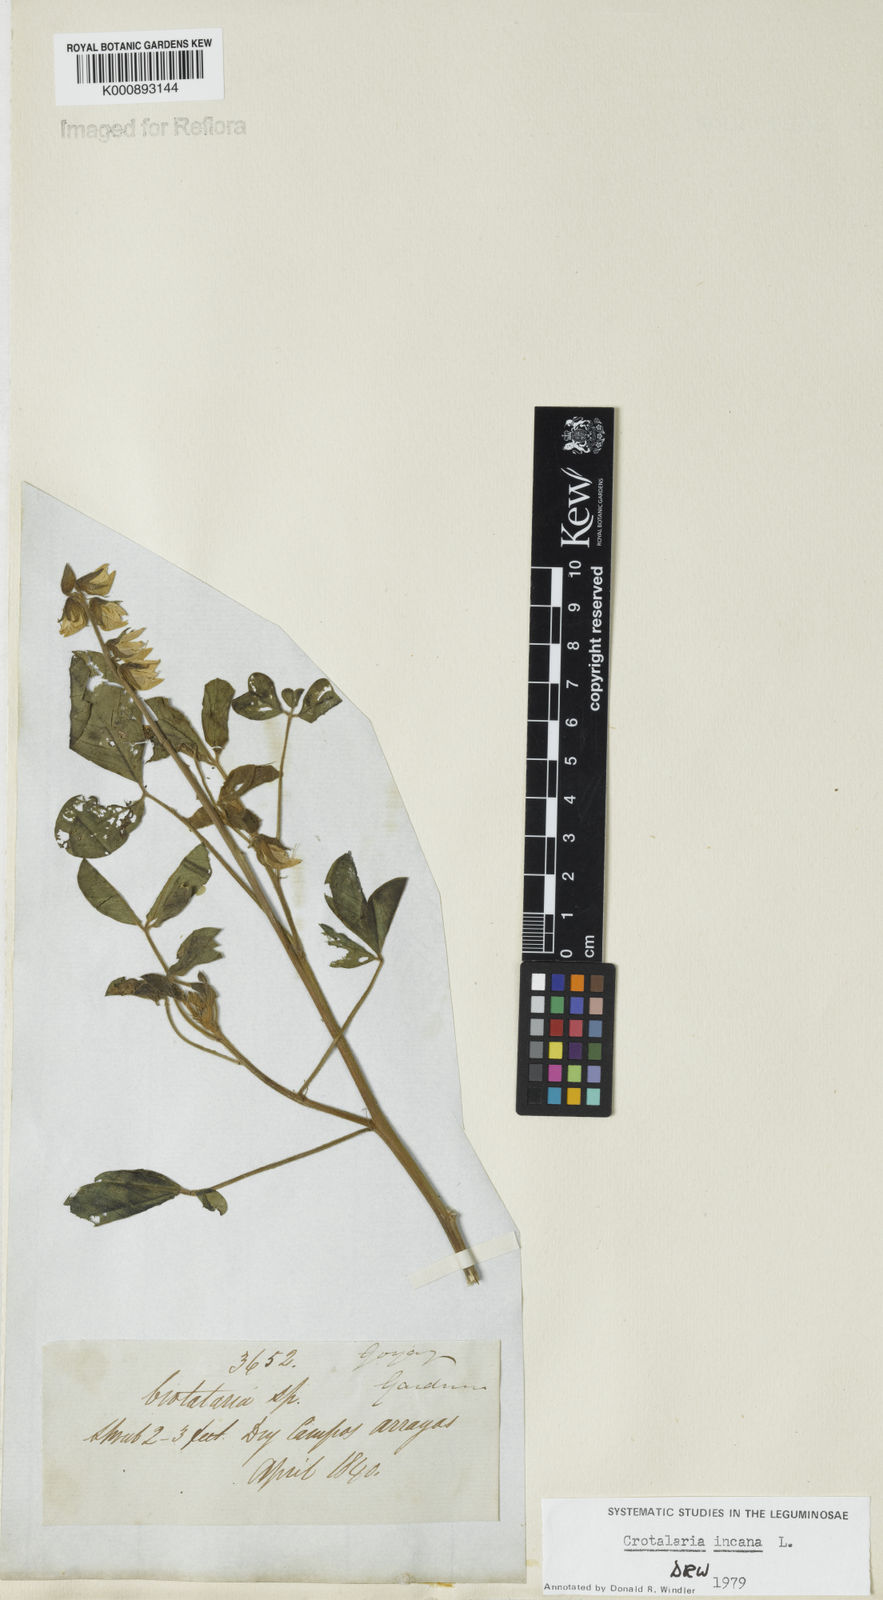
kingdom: Plantae
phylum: Tracheophyta
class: Magnoliopsida
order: Fabales
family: Fabaceae
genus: Crotalaria
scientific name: Crotalaria
